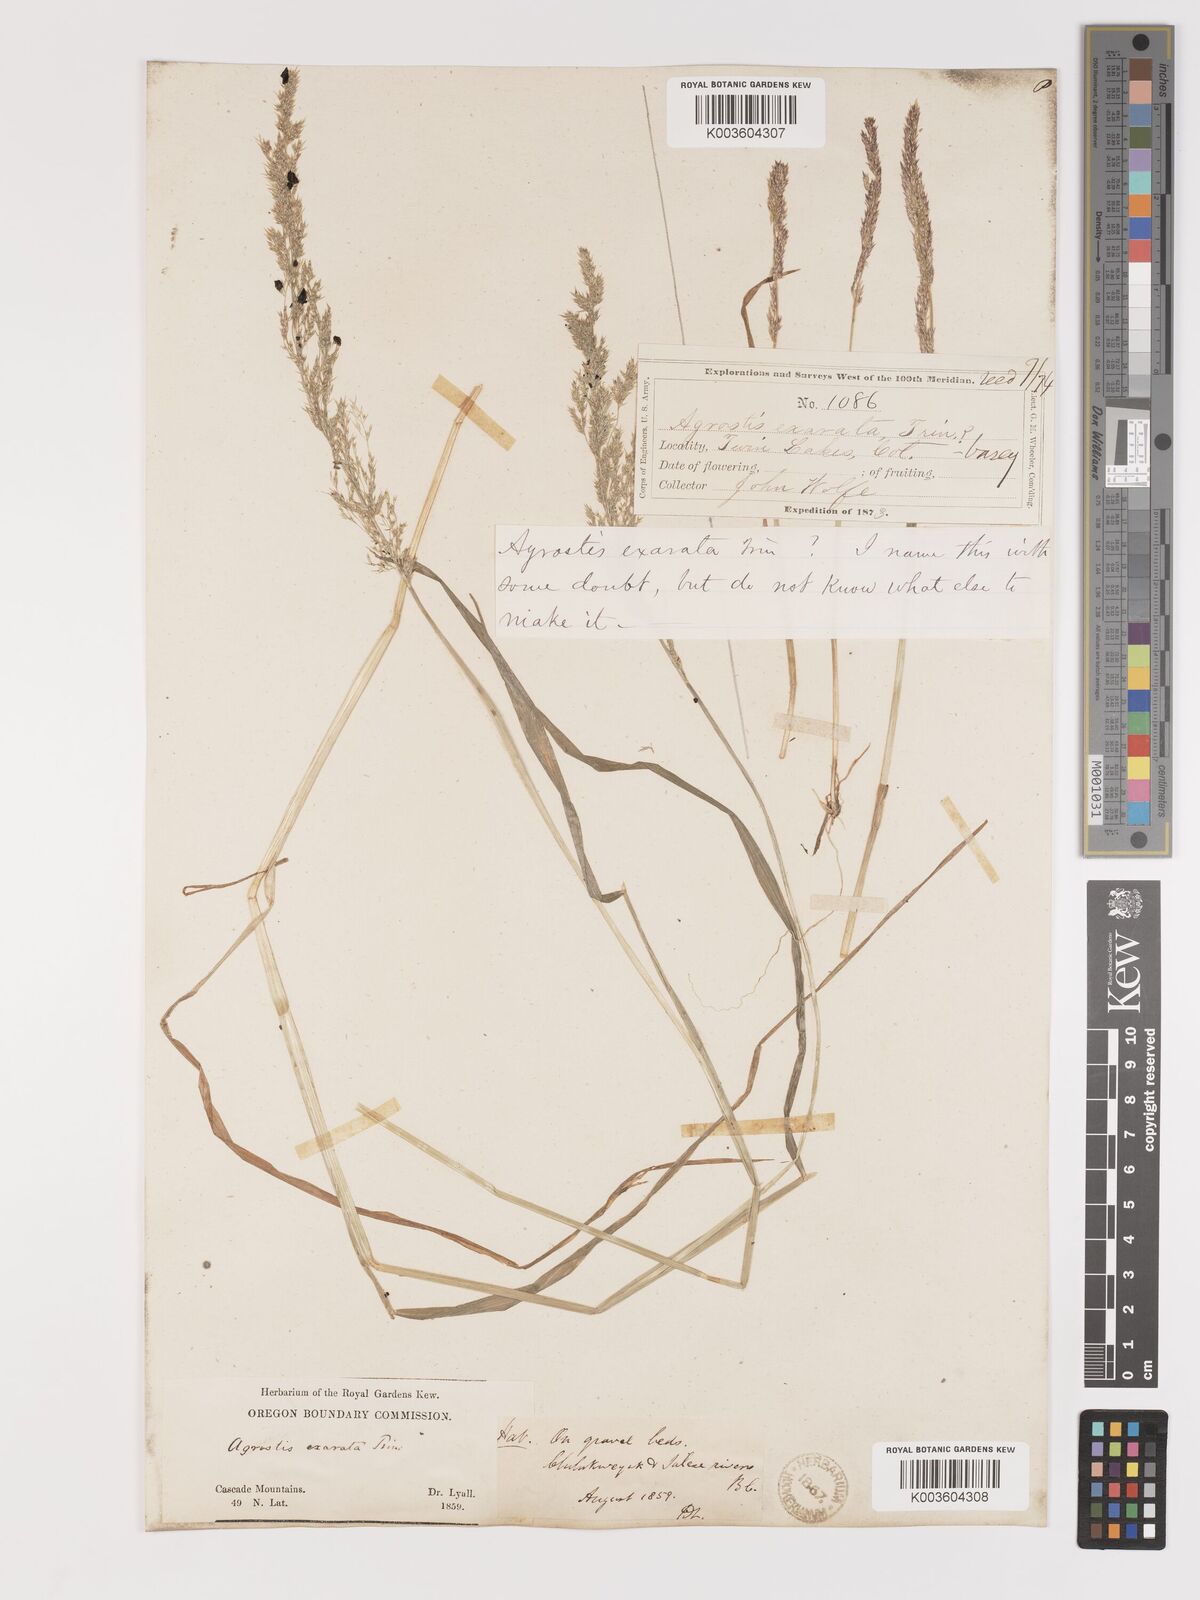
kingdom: Plantae
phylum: Tracheophyta
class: Liliopsida
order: Poales
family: Poaceae
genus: Agrostis
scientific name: Agrostis exarata
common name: Spike bent
